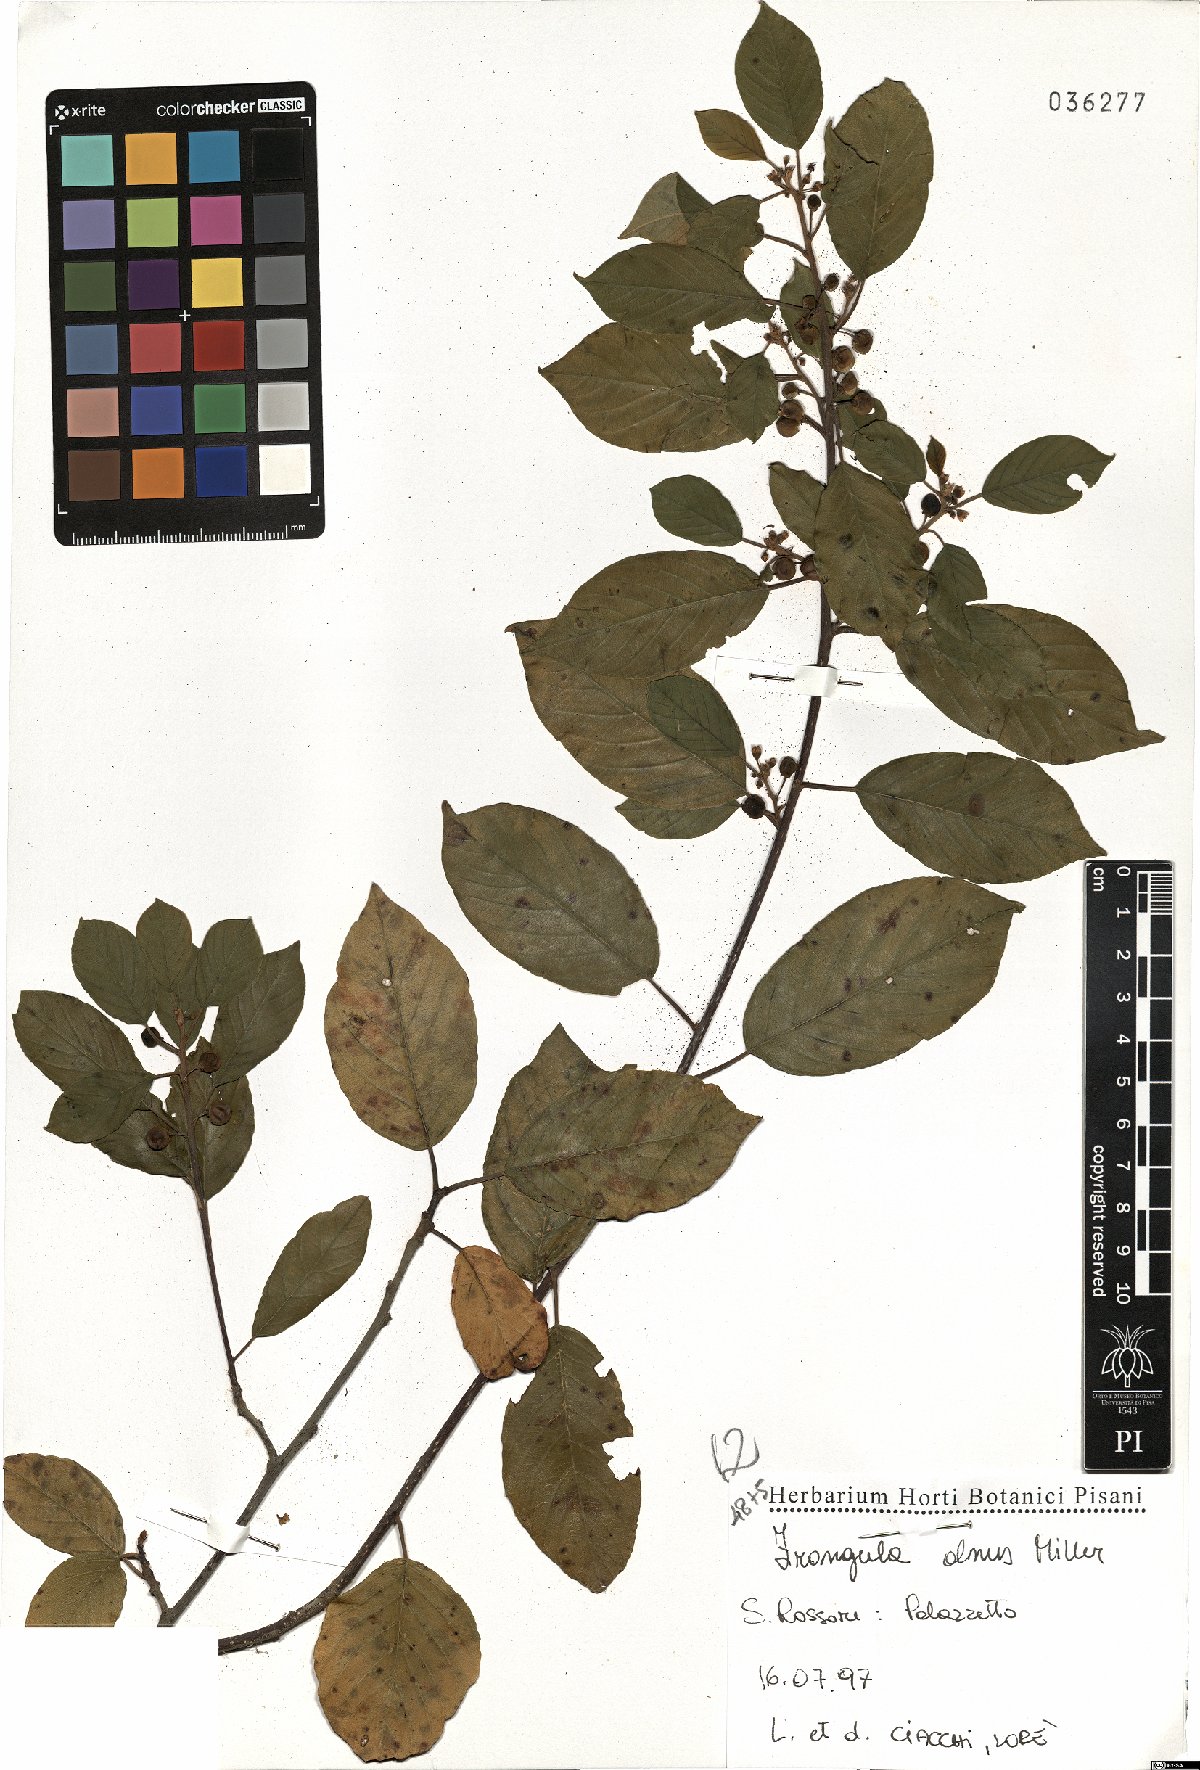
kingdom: Plantae
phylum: Tracheophyta
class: Magnoliopsida
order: Rosales
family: Rhamnaceae
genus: Frangula
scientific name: Frangula alnus
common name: Alder buckthorn
